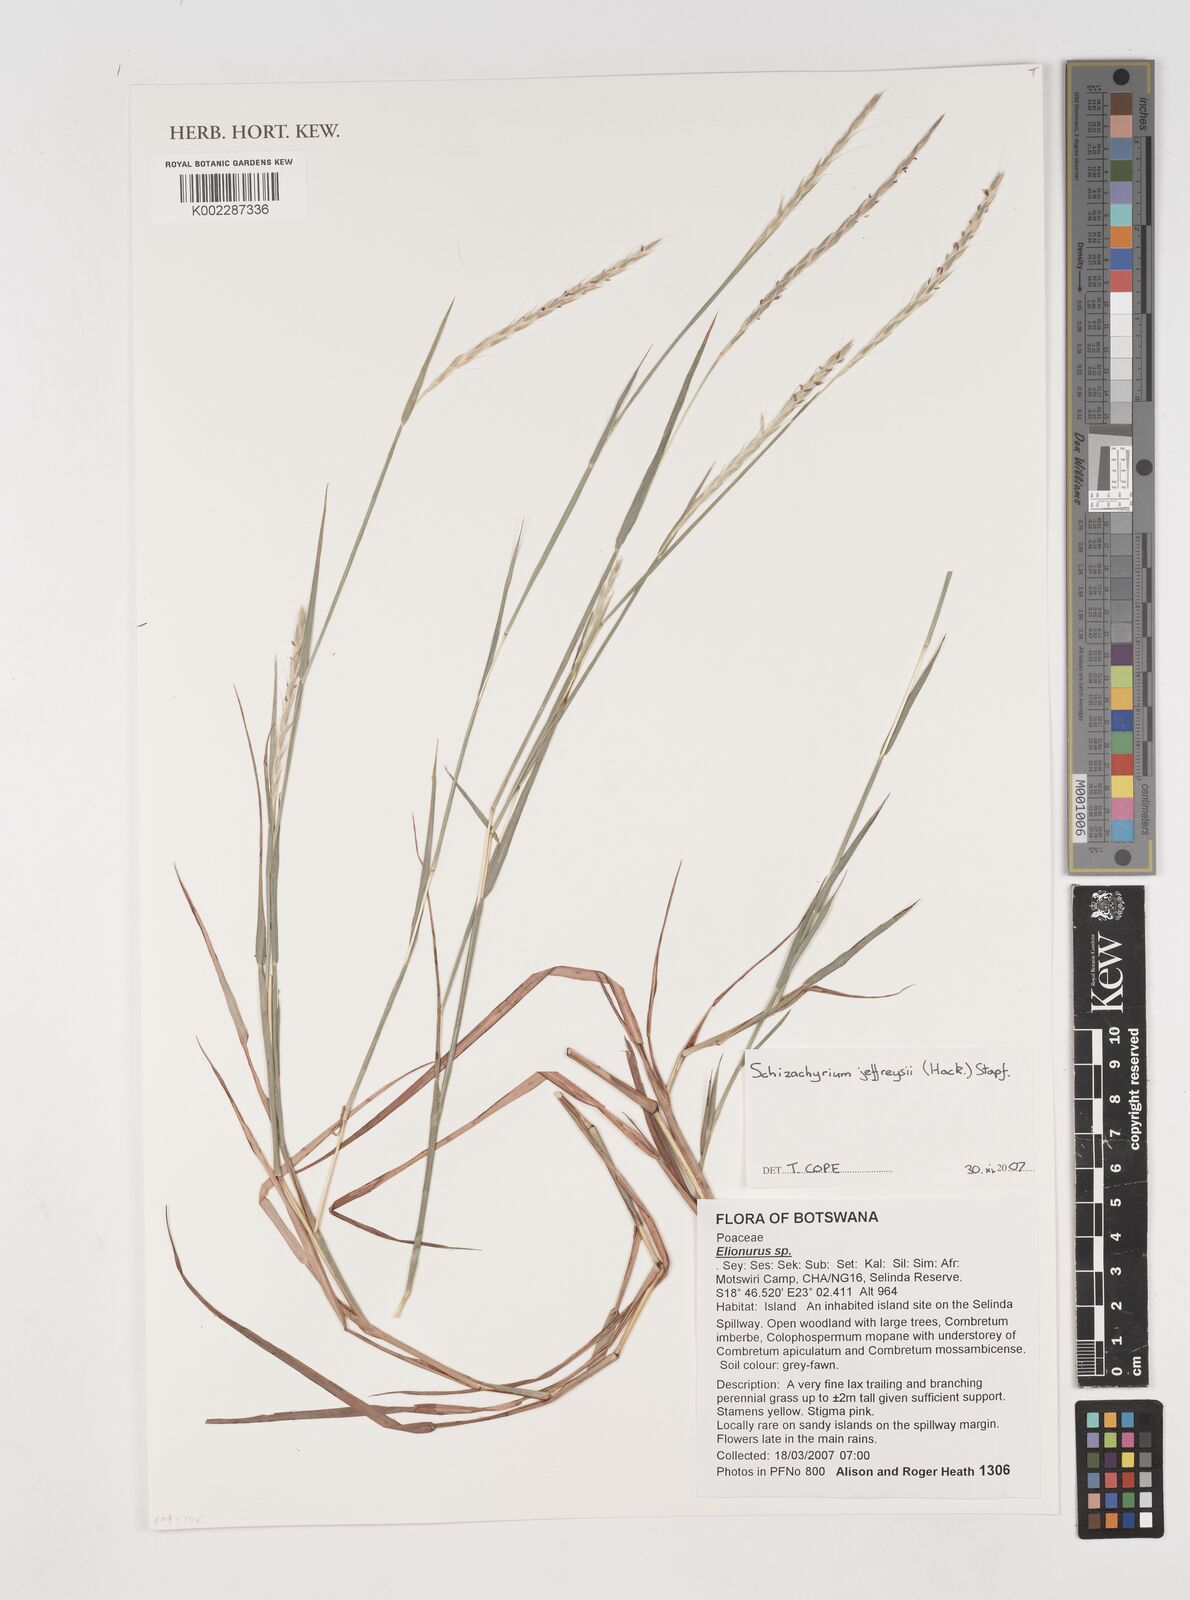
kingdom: Plantae
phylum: Tracheophyta
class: Liliopsida
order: Poales
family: Poaceae
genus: Schizachyrium
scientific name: Schizachyrium jeffreysii
